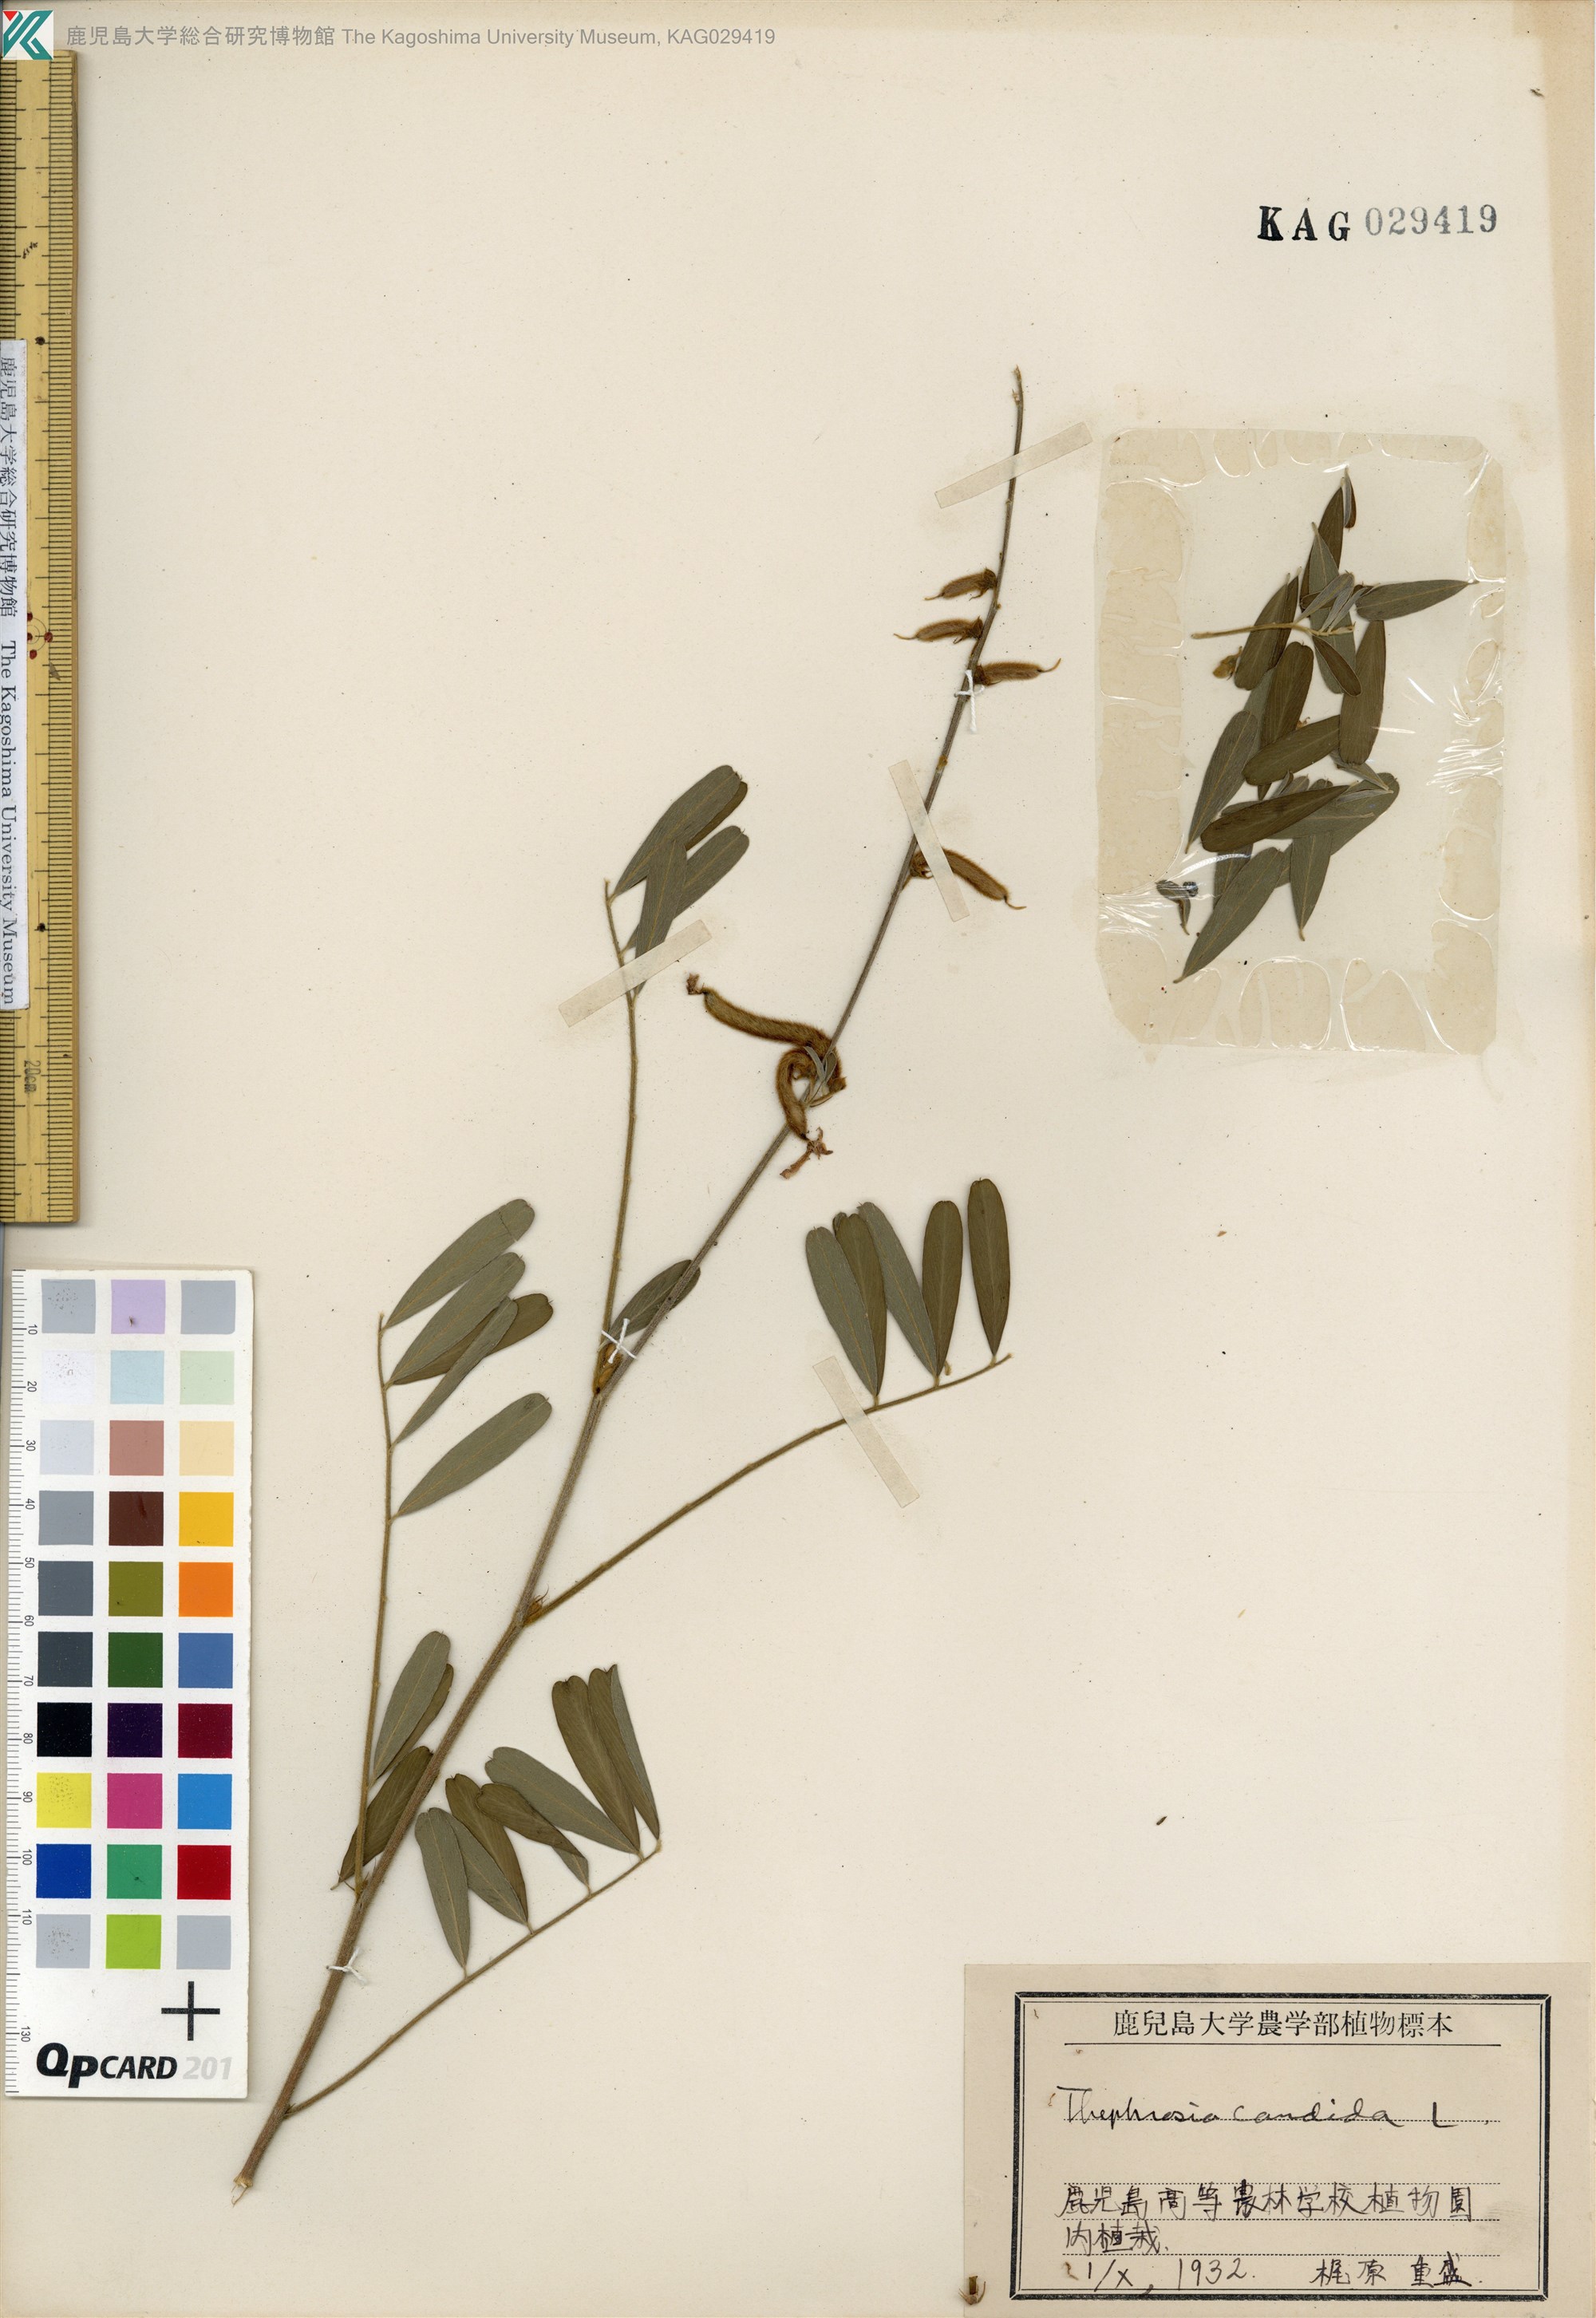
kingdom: Plantae
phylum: Tracheophyta
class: Magnoliopsida
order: Fabales
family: Fabaceae
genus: Tephrosia
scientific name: Tephrosia candida
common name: White tephrosia
